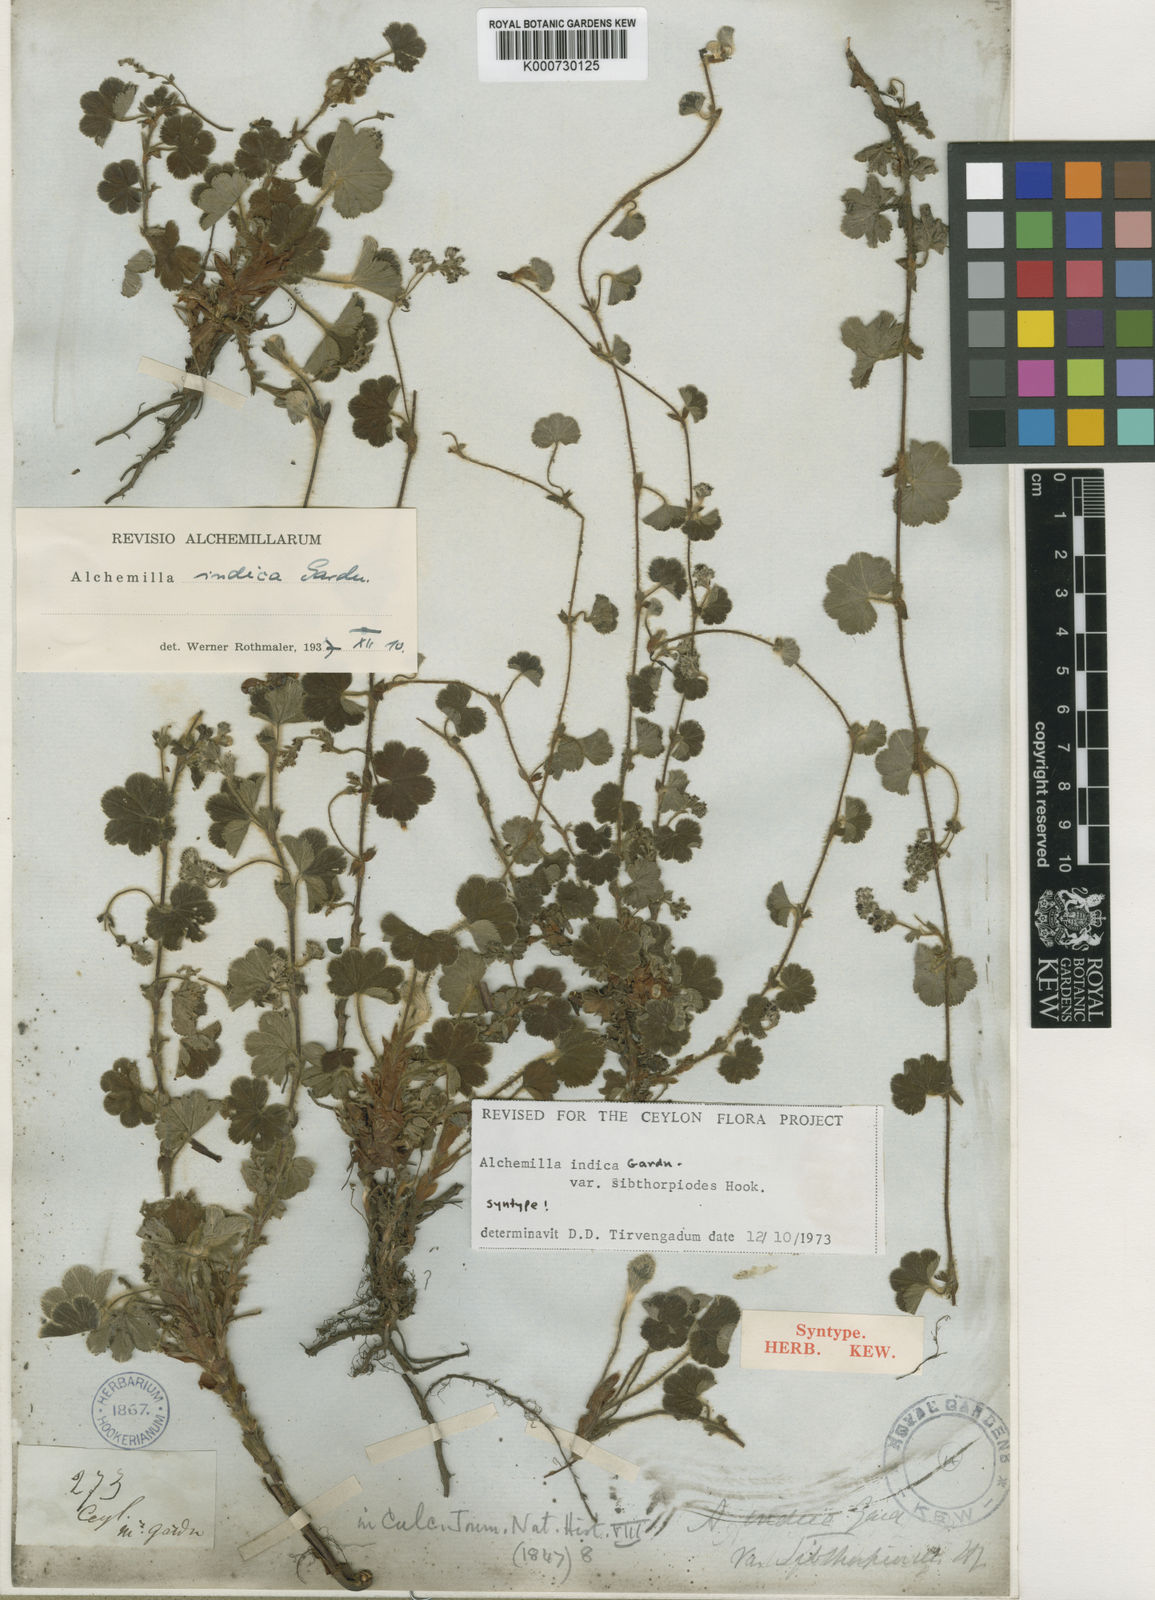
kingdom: Plantae
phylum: Tracheophyta
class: Magnoliopsida
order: Rosales
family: Rosaceae
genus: Alchemilla
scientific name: Alchemilla sibthorpioides
